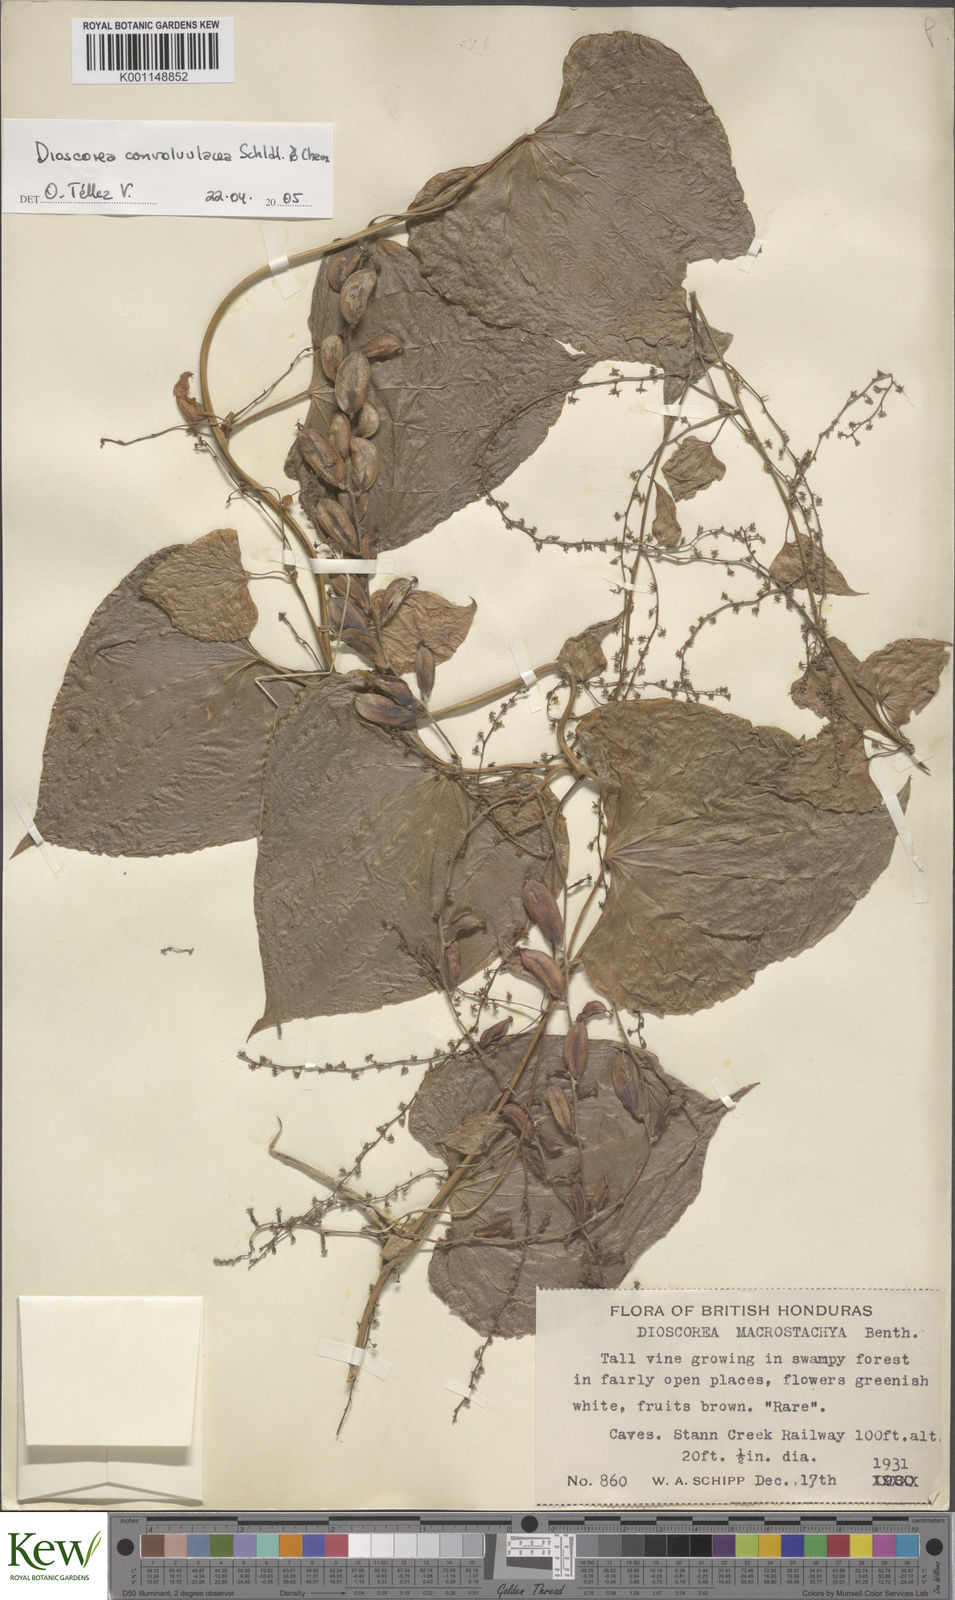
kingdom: Plantae
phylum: Tracheophyta
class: Liliopsida
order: Dioscoreales
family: Dioscoreaceae
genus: Dioscorea
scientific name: Dioscorea
